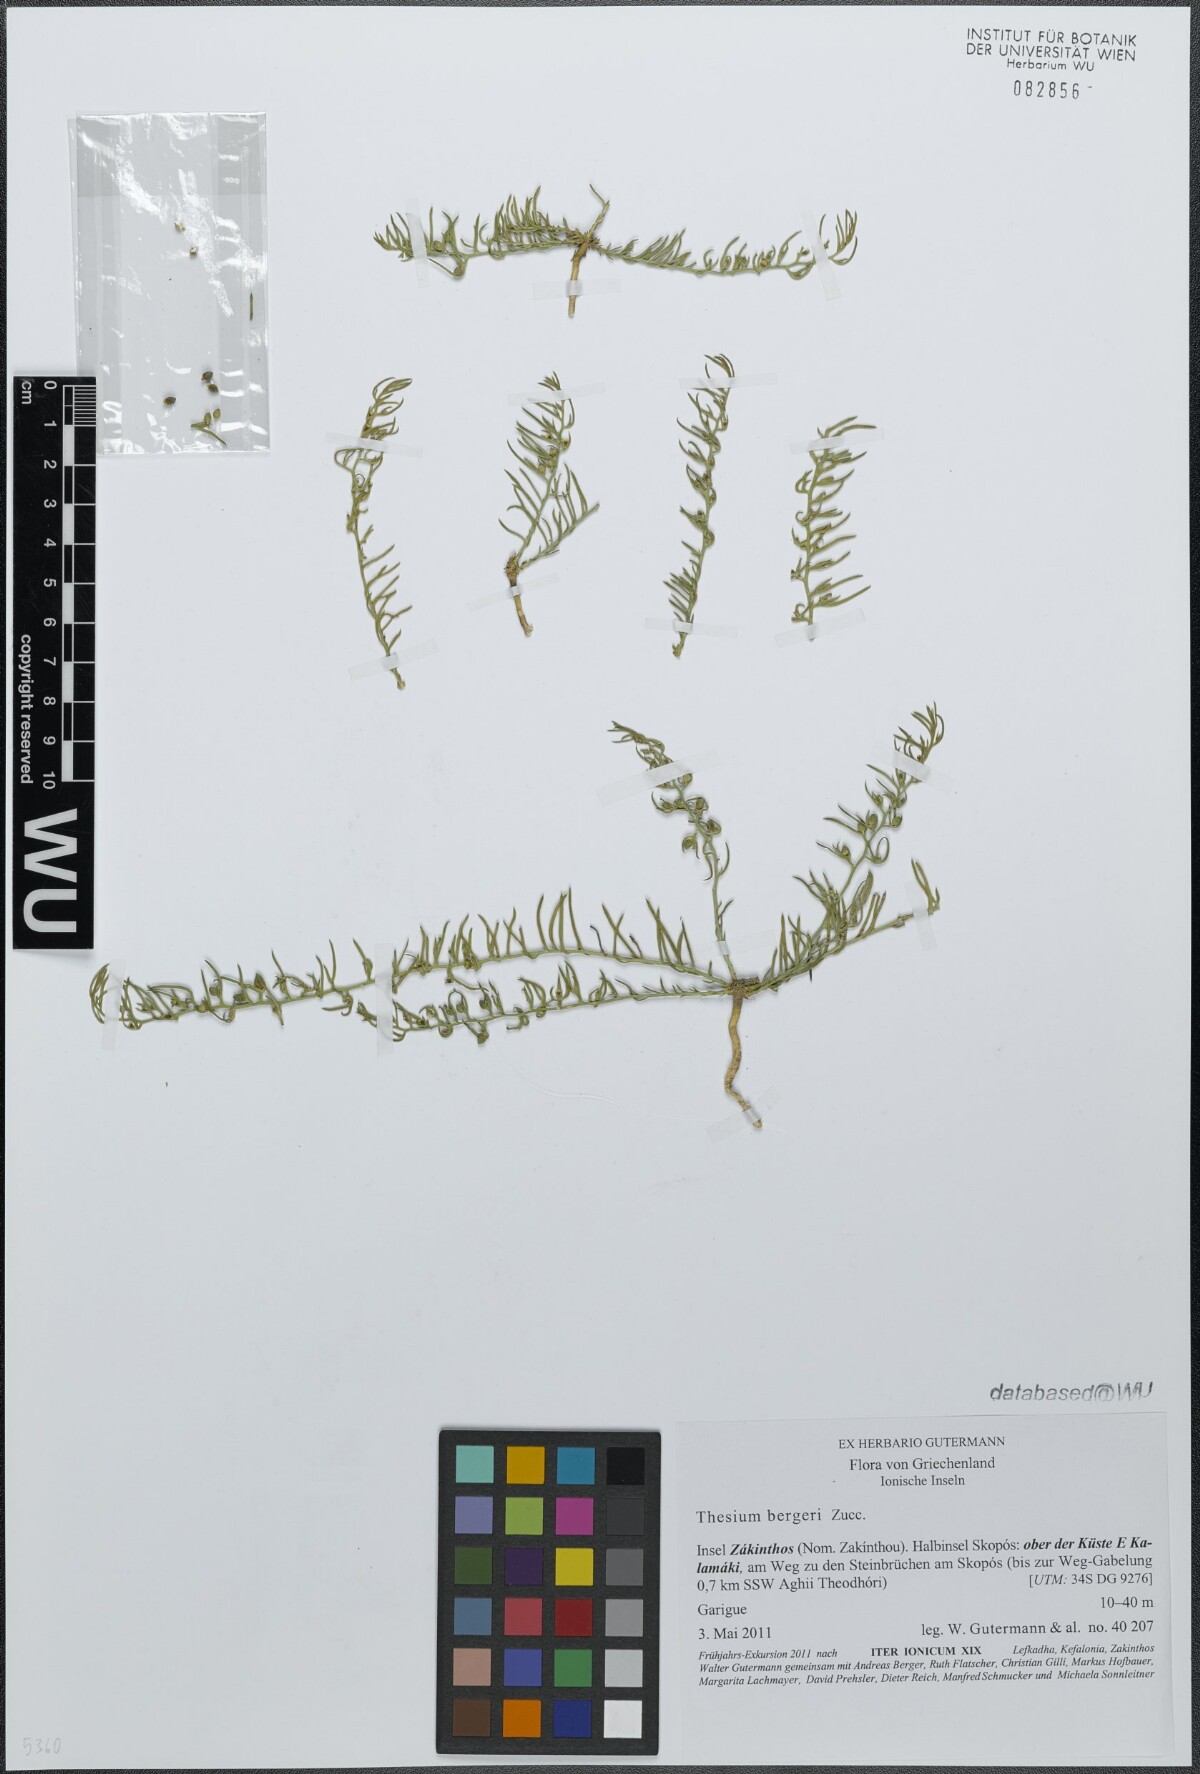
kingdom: Plantae
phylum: Tracheophyta
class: Magnoliopsida
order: Santalales
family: Thesiaceae
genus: Thesium
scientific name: Thesium bergeri
